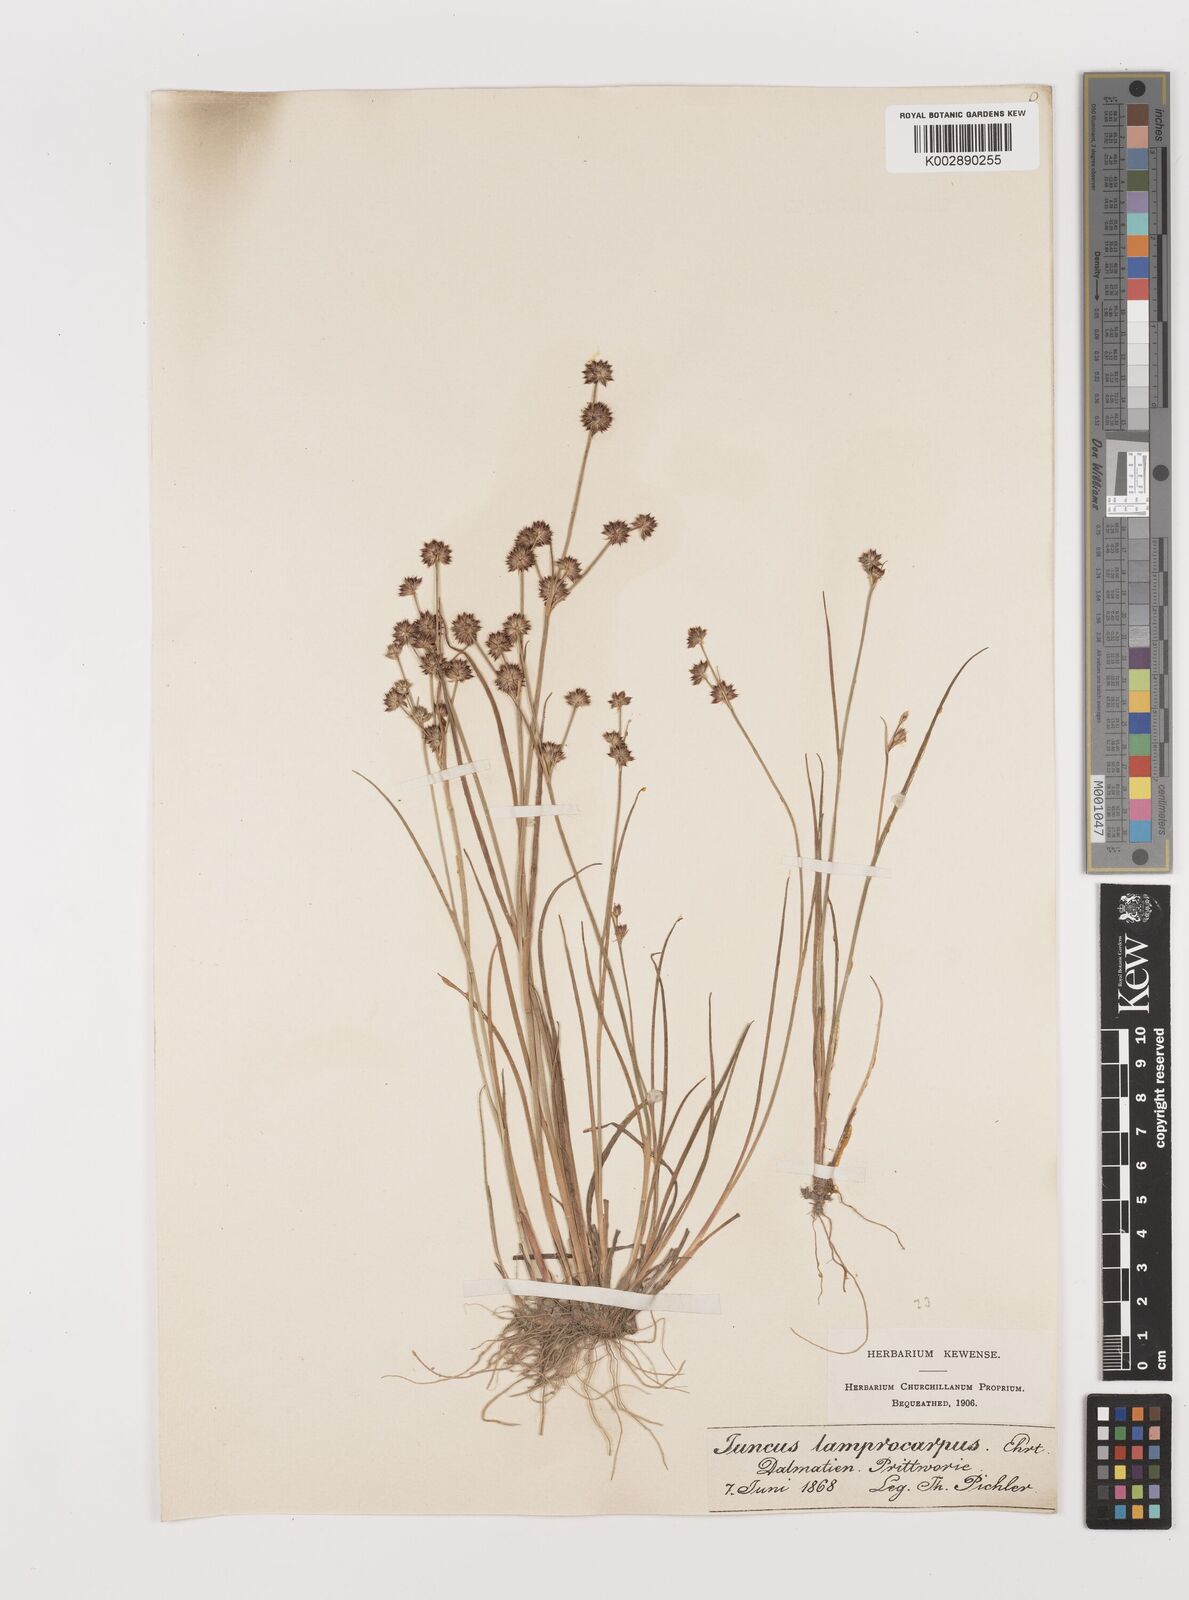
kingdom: Plantae
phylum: Tracheophyta
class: Liliopsida
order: Poales
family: Juncaceae
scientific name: Juncaceae
